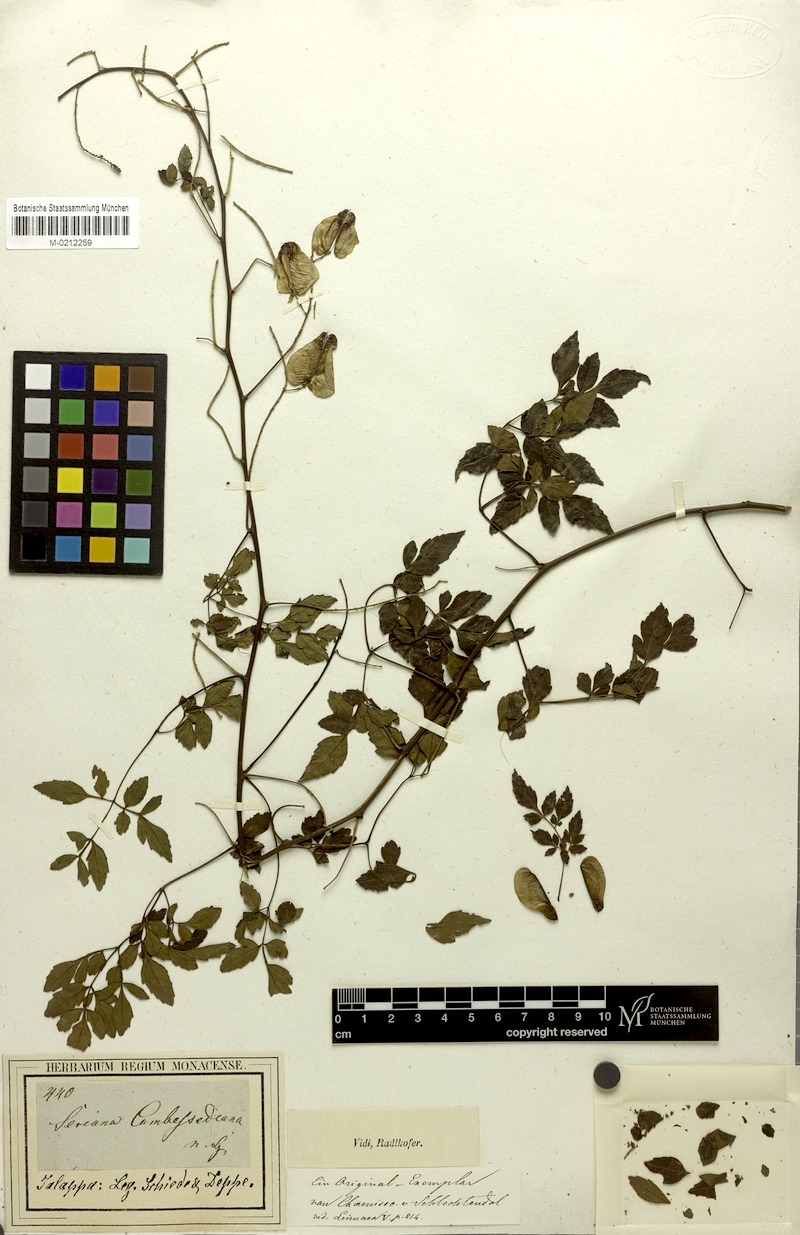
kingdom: Plantae
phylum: Tracheophyta
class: Magnoliopsida
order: Sapindales
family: Sapindaceae
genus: Serjania
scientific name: Serjania adiantoides
